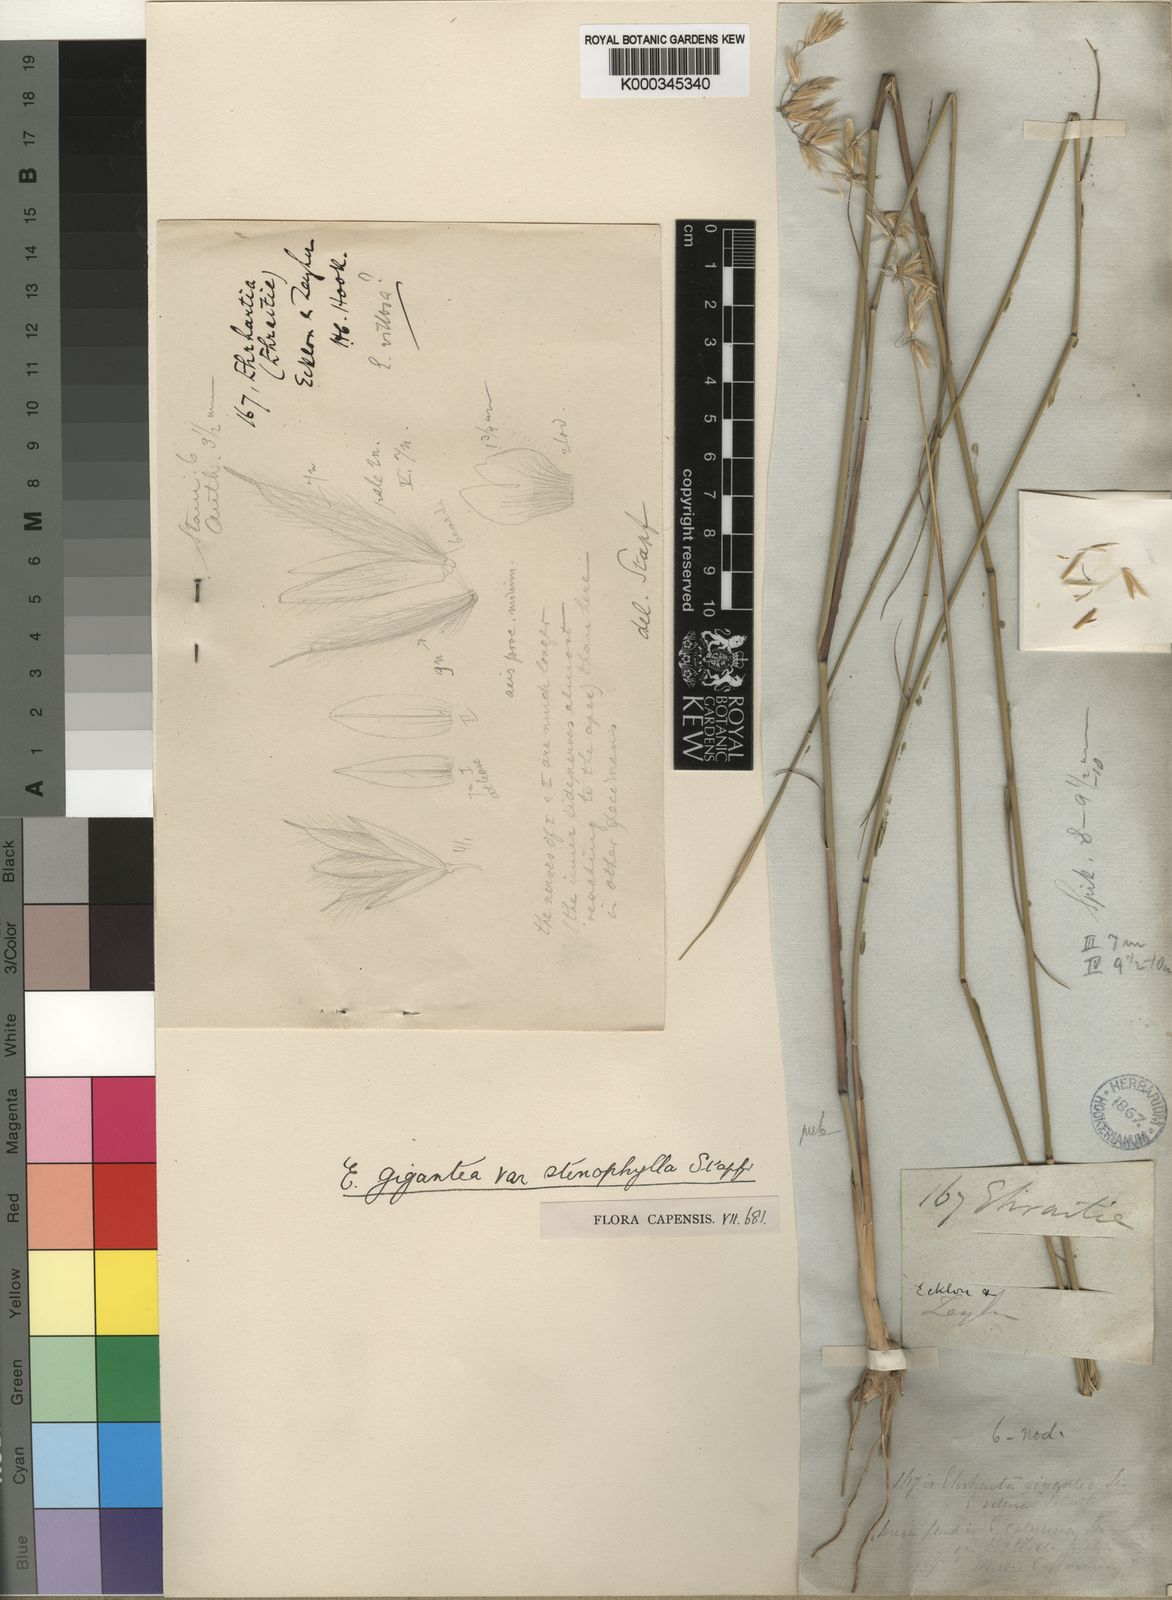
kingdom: Plantae
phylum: Tracheophyta
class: Liliopsida
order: Poales
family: Poaceae
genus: Ehrharta
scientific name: Ehrharta thunbergii
